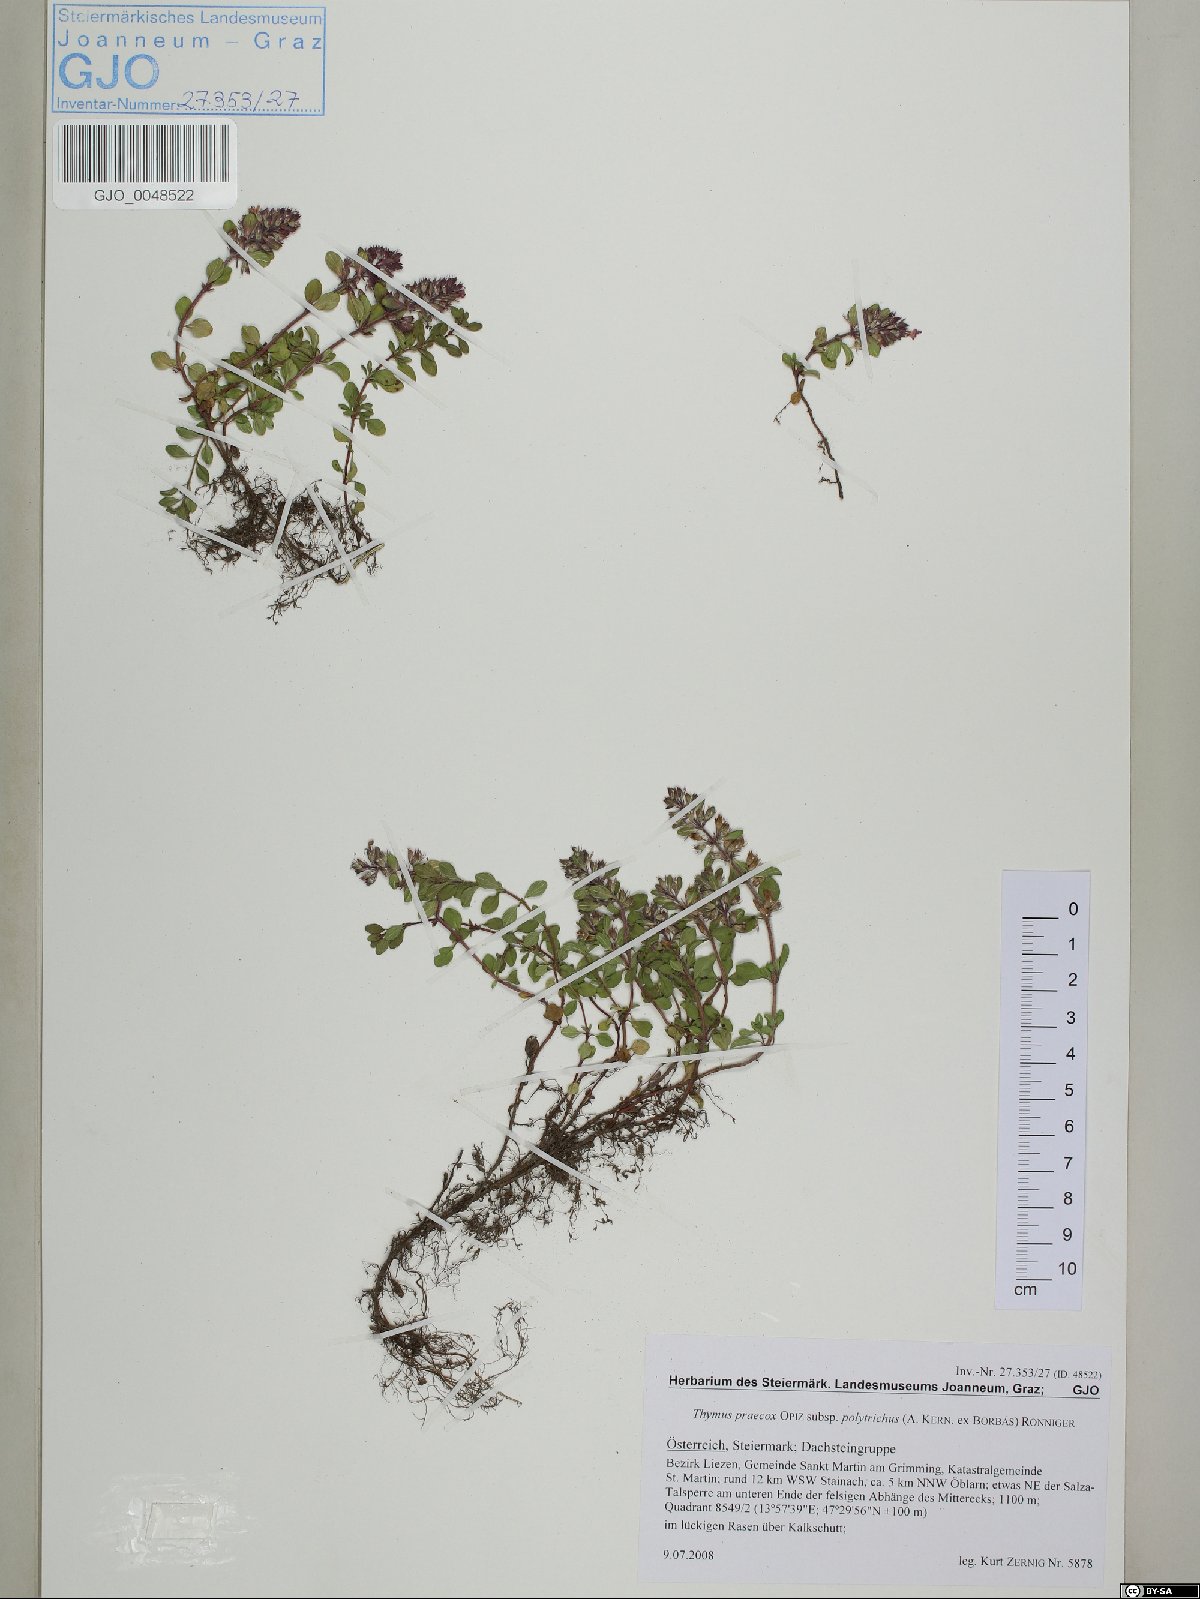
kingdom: Plantae
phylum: Tracheophyta
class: Magnoliopsida
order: Lamiales
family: Lamiaceae
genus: Thymus
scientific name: Thymus praecox
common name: Wild thyme
